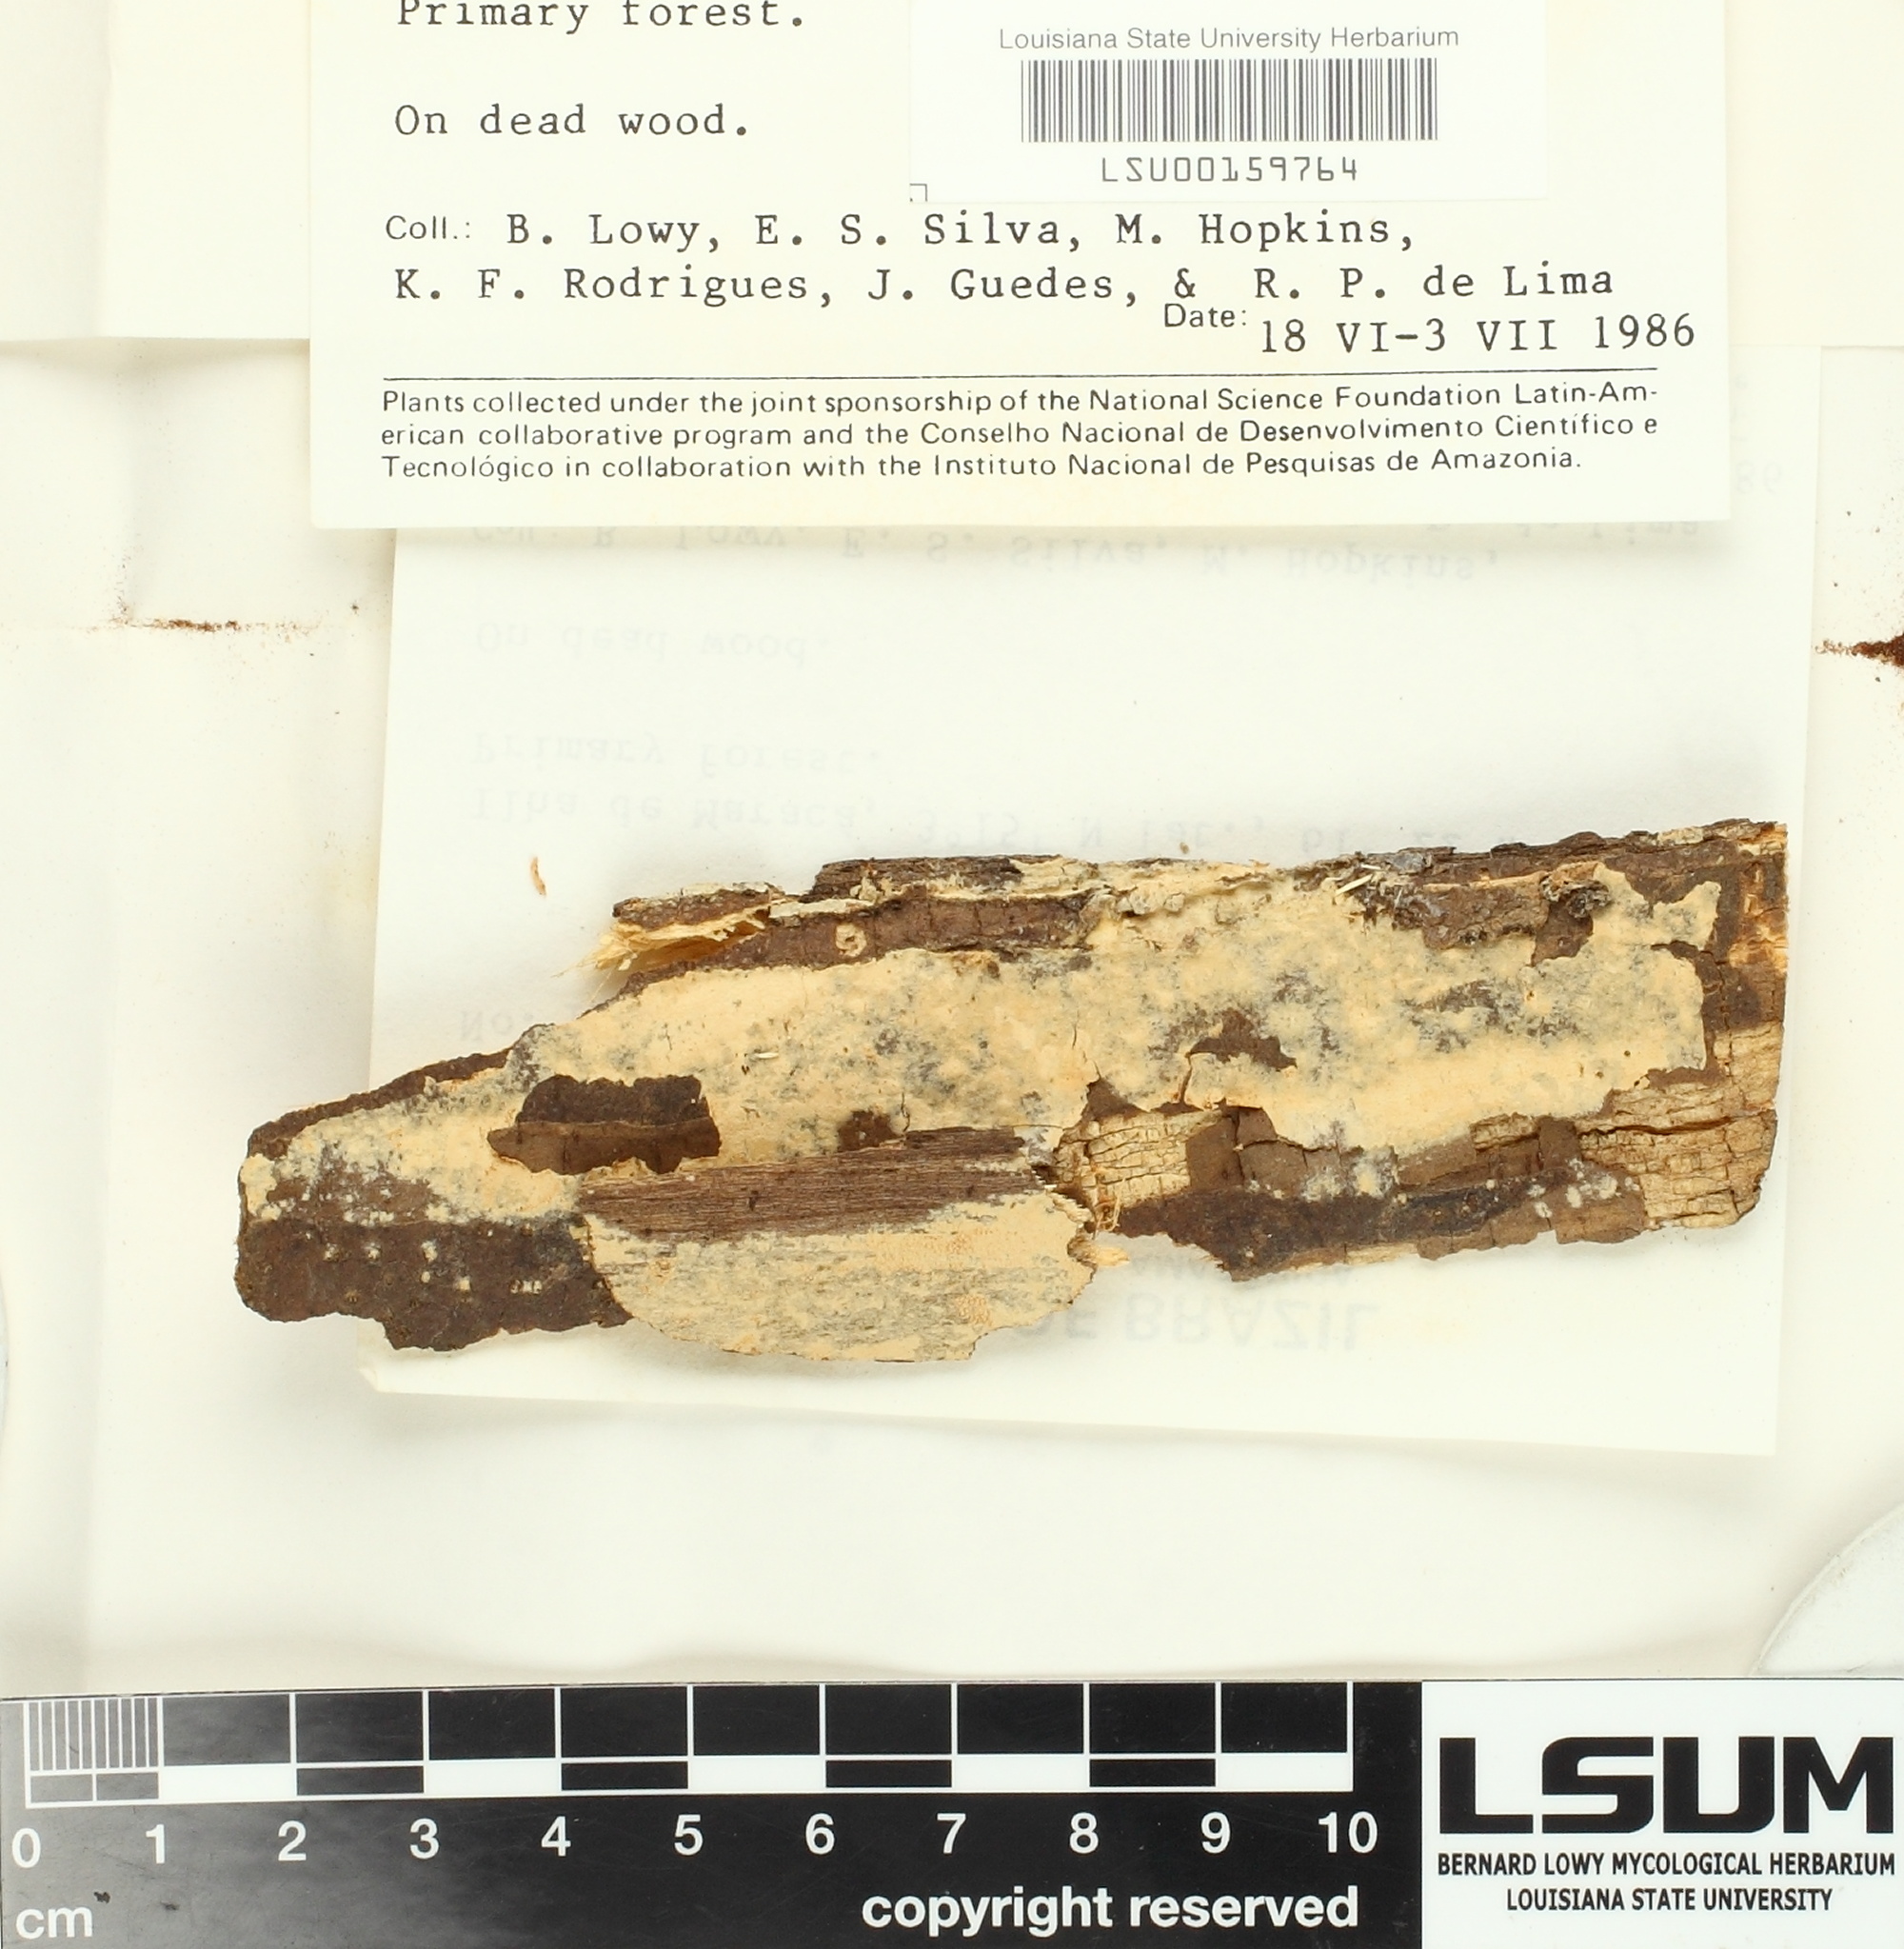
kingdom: Fungi
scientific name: Fungi
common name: Fungi
